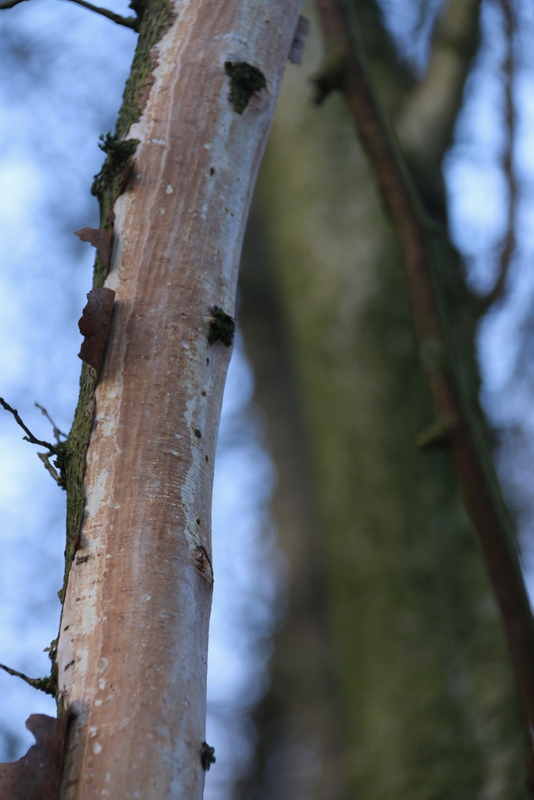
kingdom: Fungi
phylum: Basidiomycota
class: Agaricomycetes
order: Corticiales
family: Vuilleminiaceae
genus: Vuilleminia
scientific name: Vuilleminia coryli
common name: hassel-barksprænger
